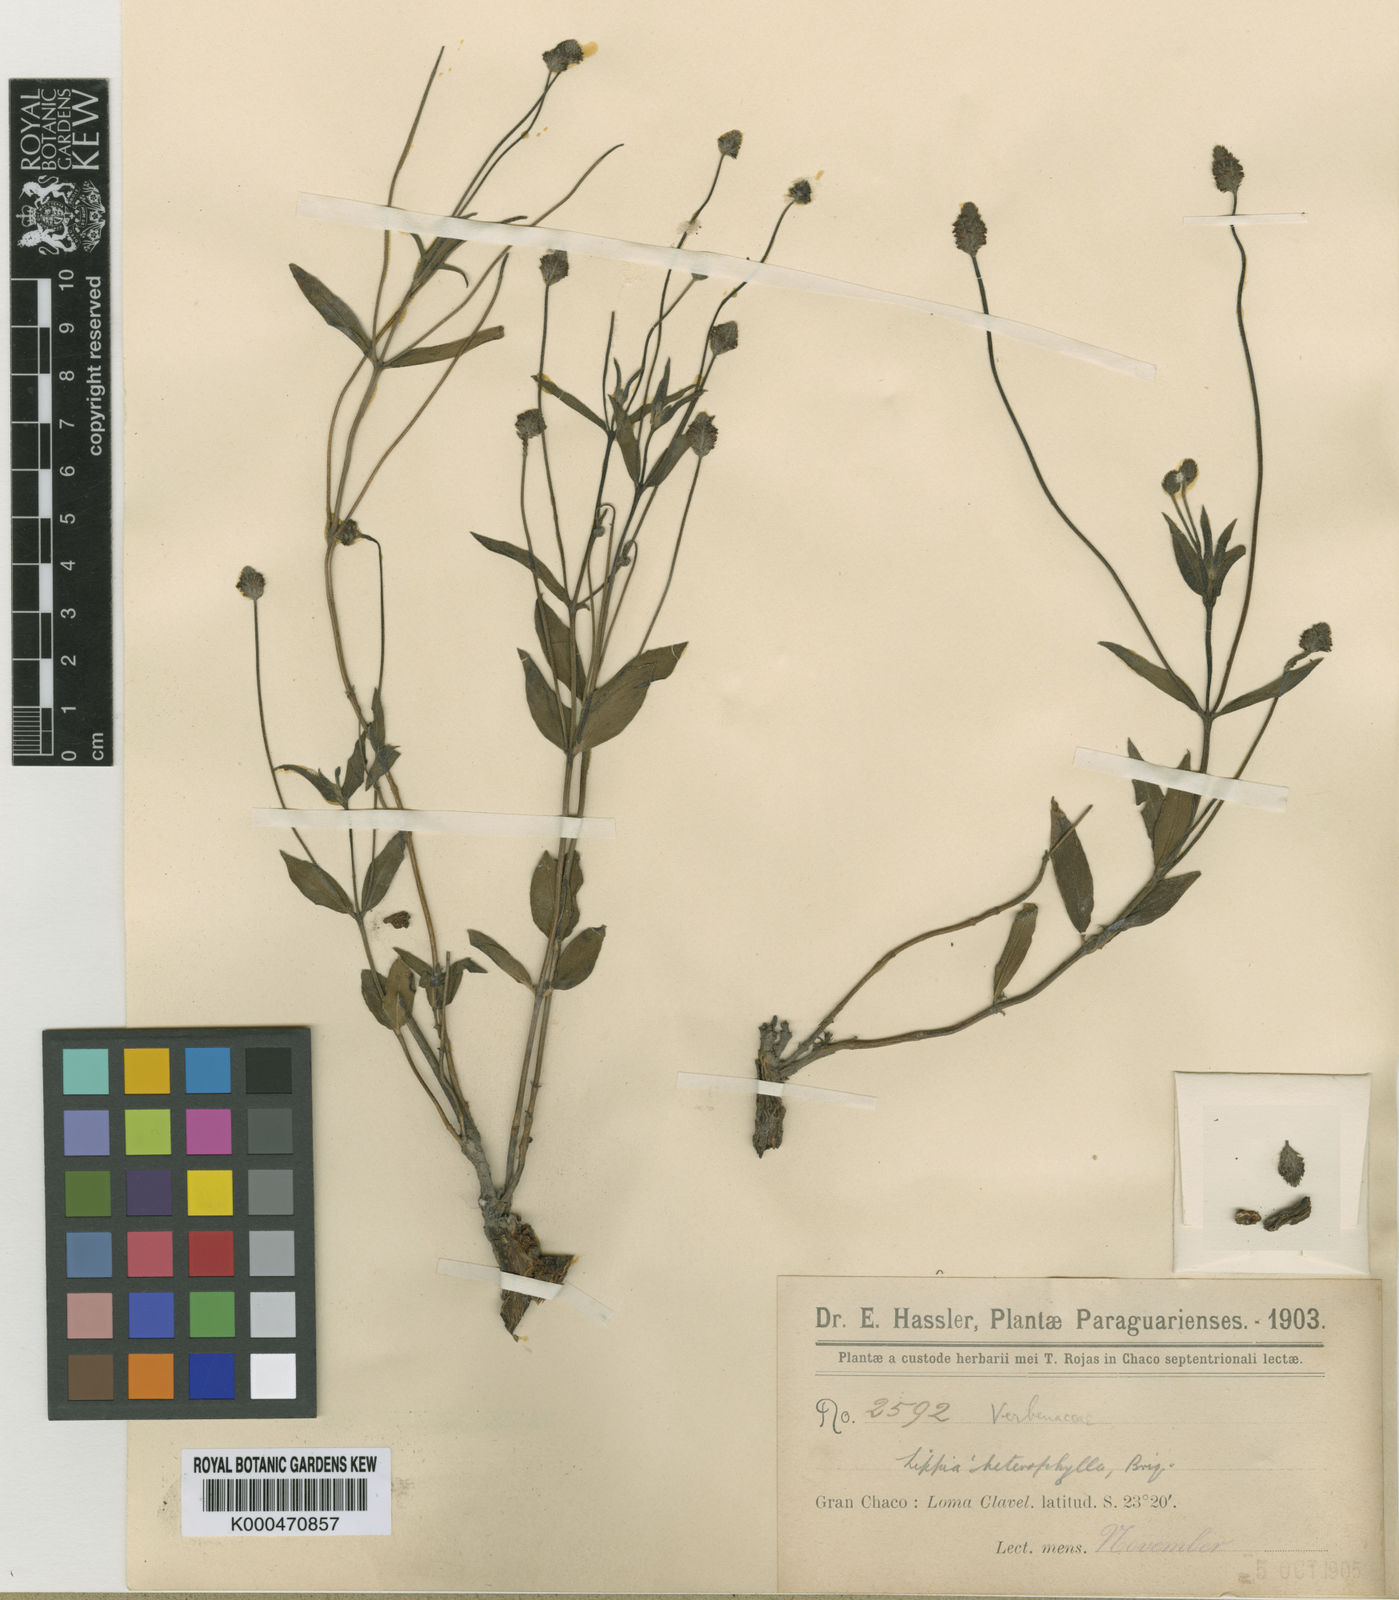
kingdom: Plantae
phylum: Tracheophyta
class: Magnoliopsida
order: Lamiales
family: Verbenaceae
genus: Lippia
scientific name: Lippia longipedunculata
